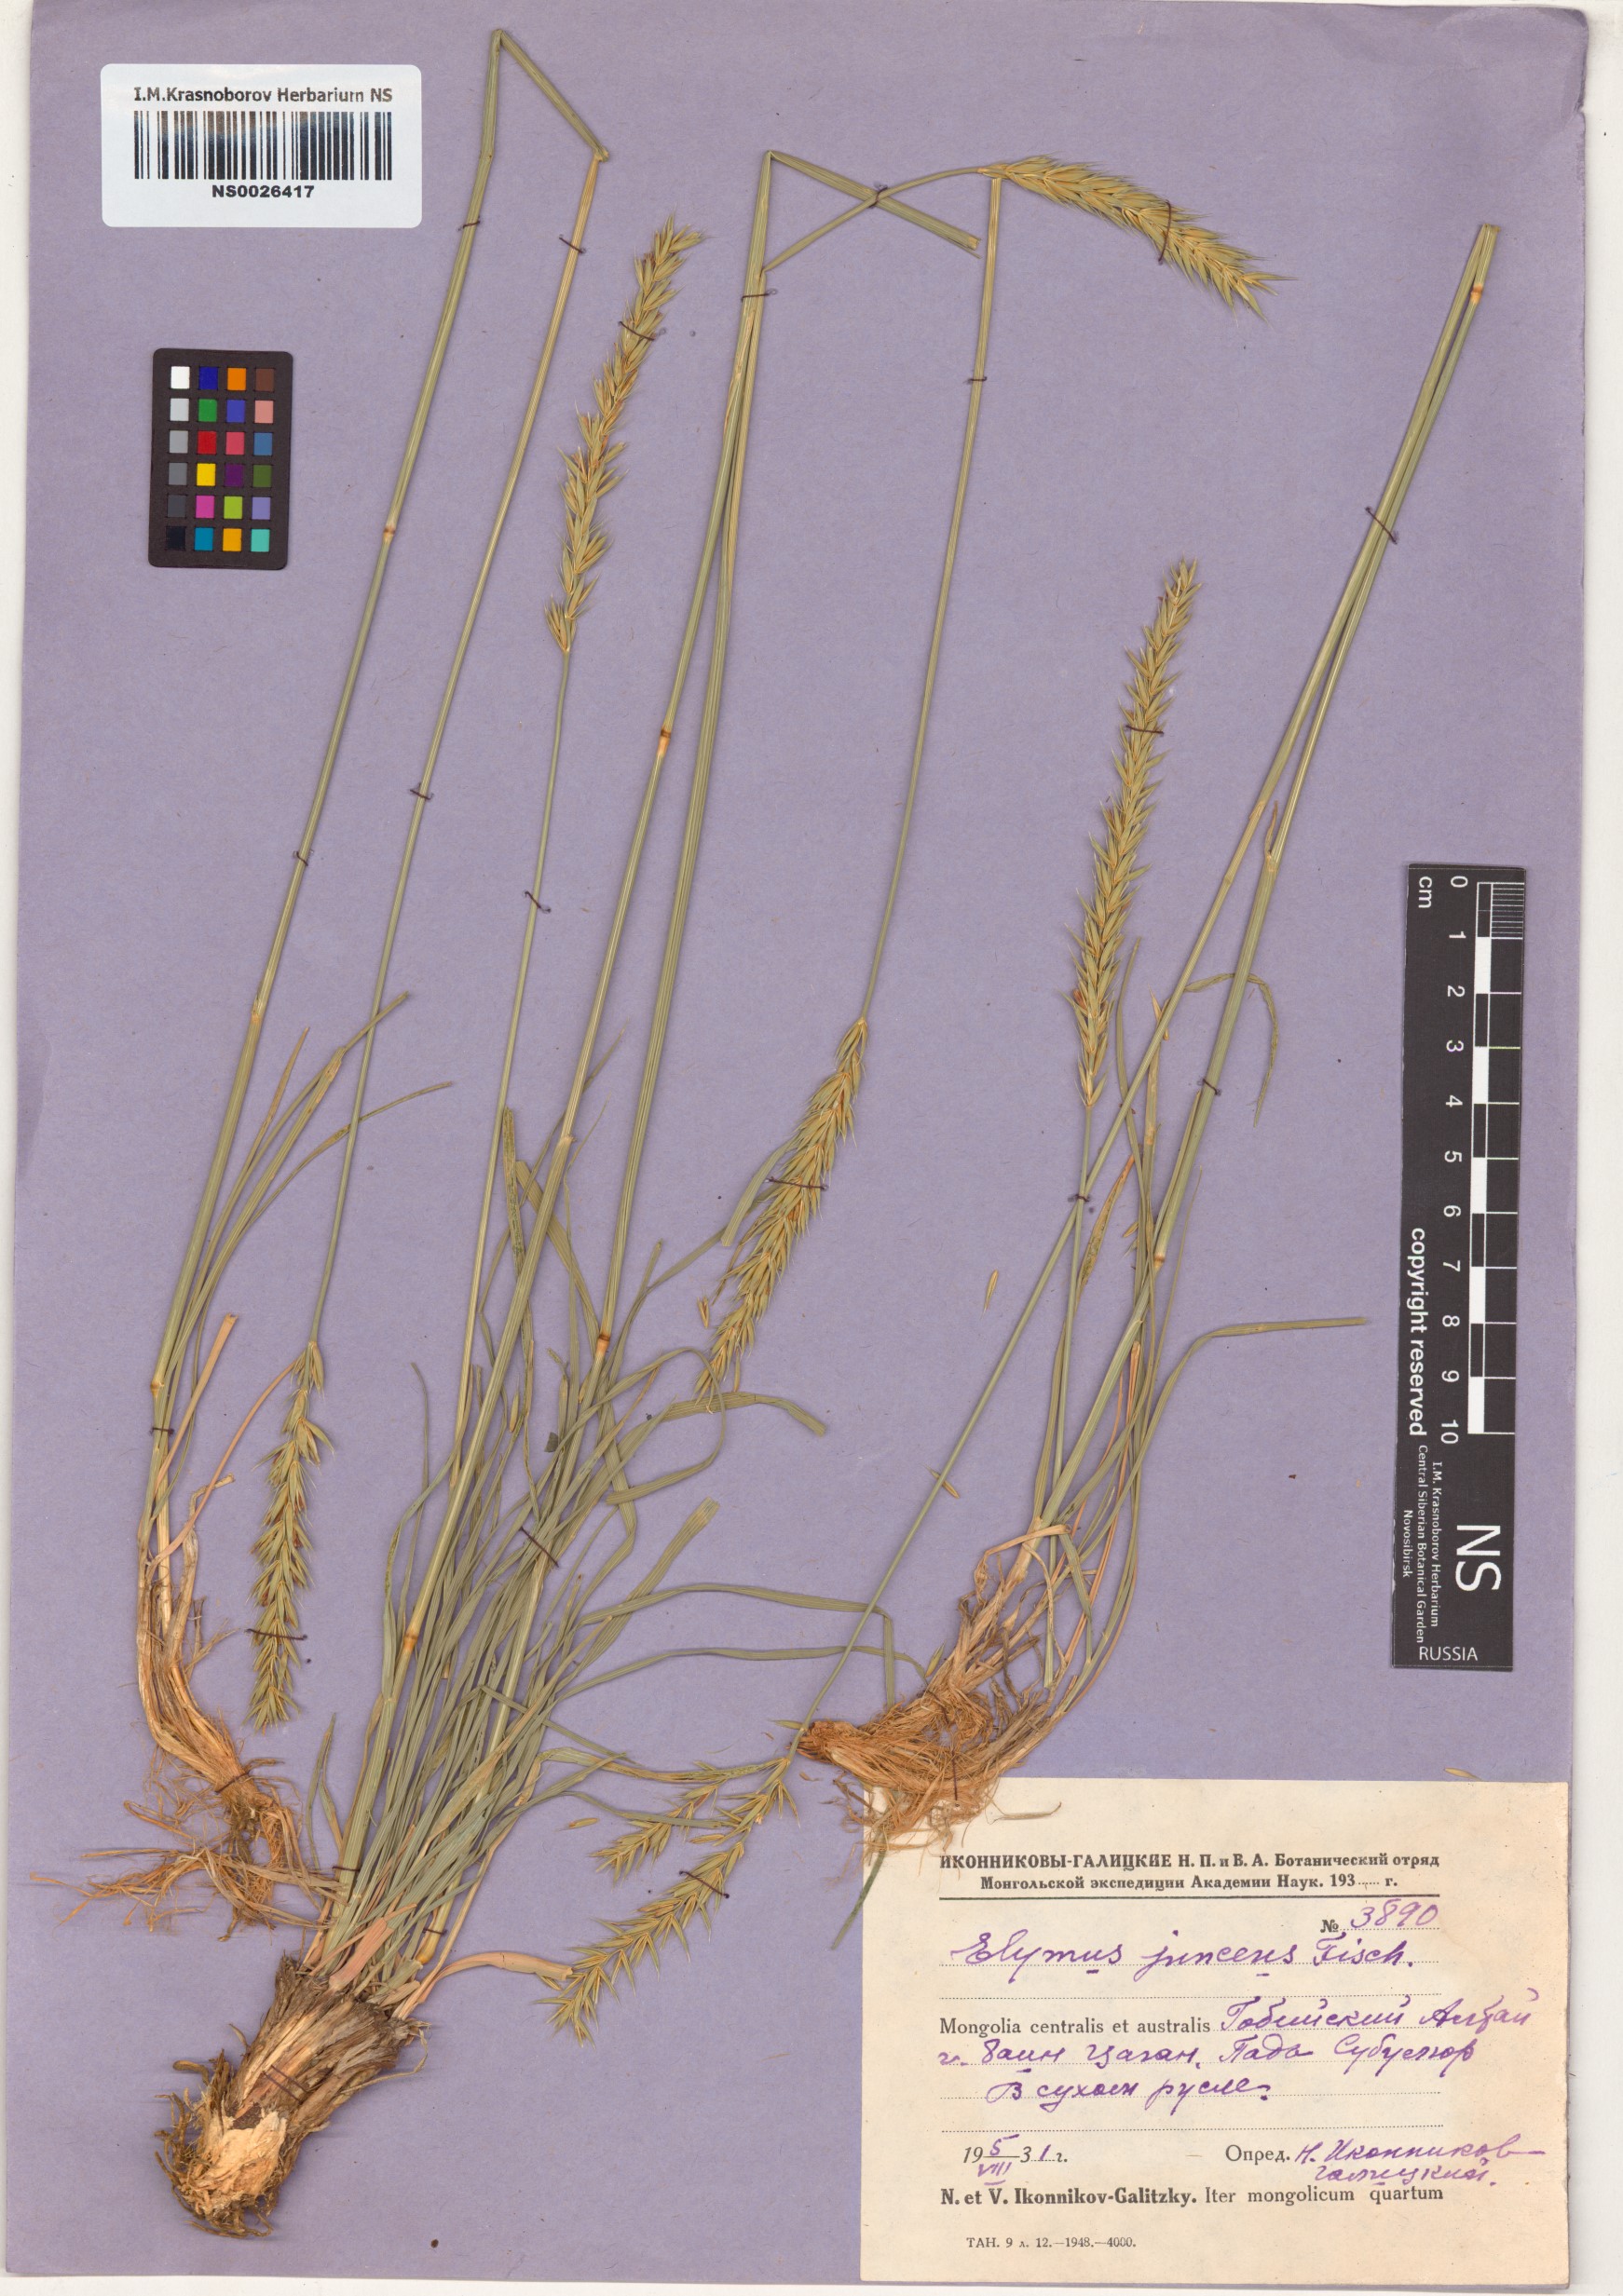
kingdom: Plantae
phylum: Tracheophyta
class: Liliopsida
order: Poales
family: Poaceae
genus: Psathyrostachys
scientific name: Psathyrostachys juncea
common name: Russian wildrye
